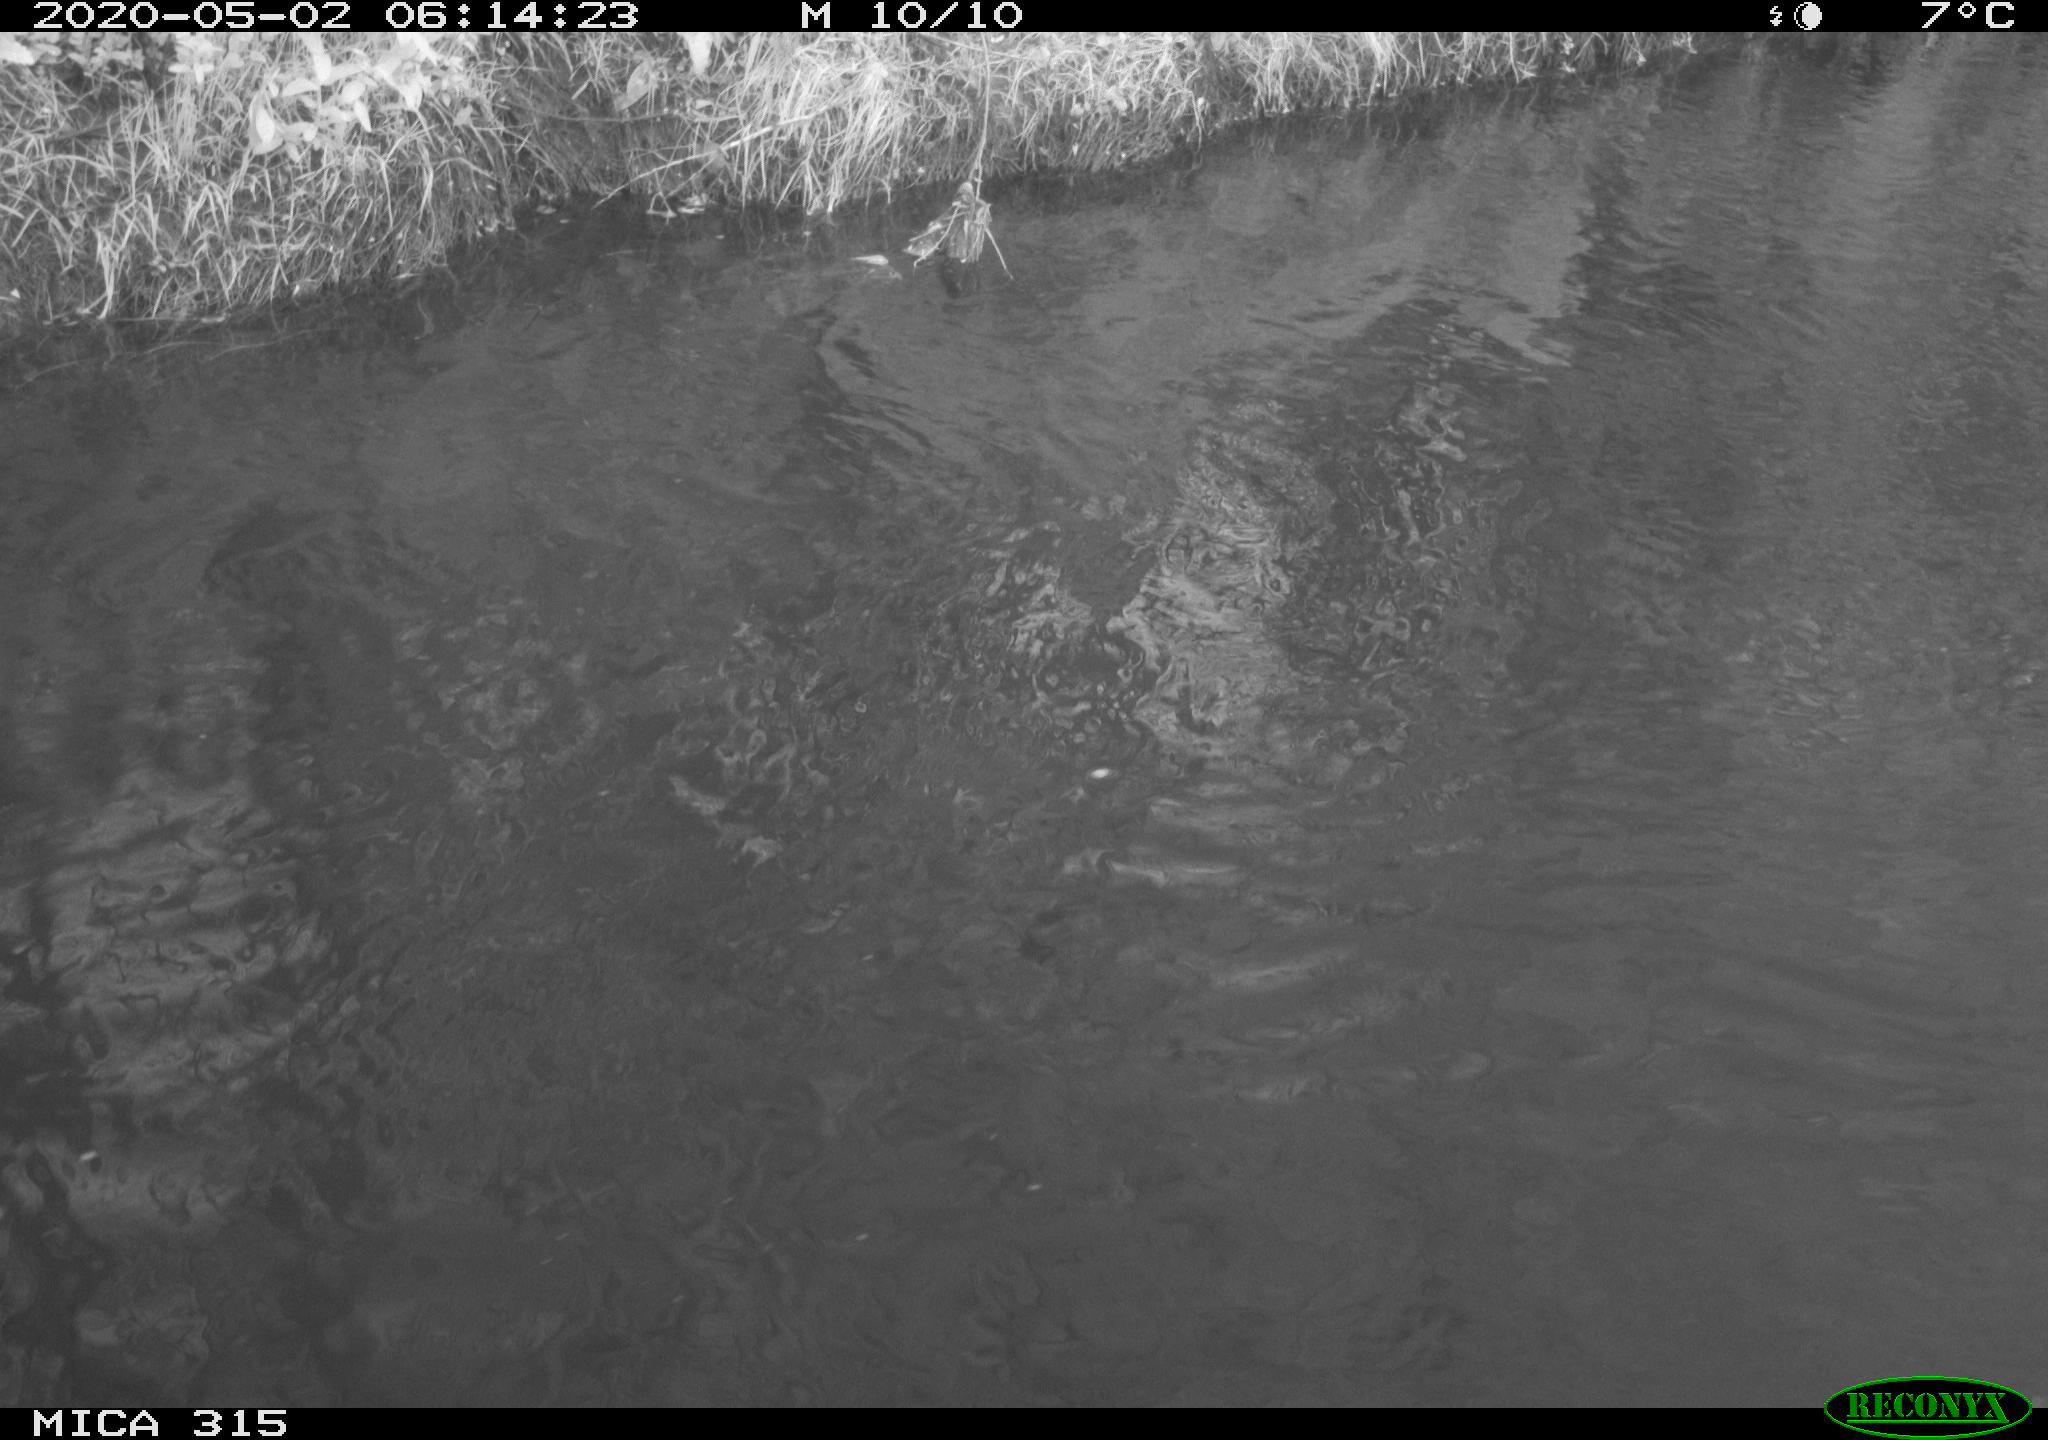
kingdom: Animalia
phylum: Chordata
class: Aves
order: Anseriformes
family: Anatidae
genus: Anas
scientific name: Anas platyrhynchos
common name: Mallard
